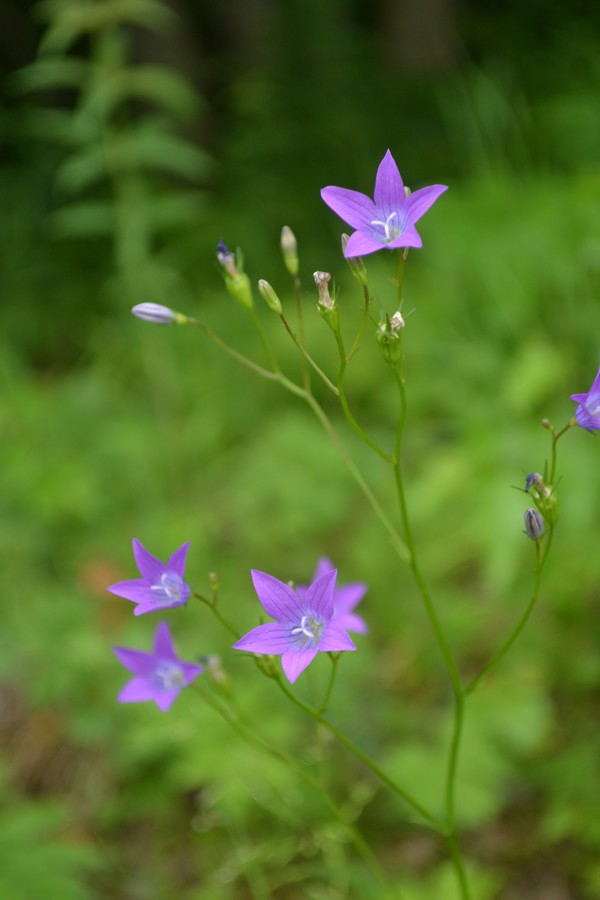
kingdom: Plantae
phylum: Tracheophyta
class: Magnoliopsida
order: Asterales
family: Campanulaceae
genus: Campanula
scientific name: Campanula patula
